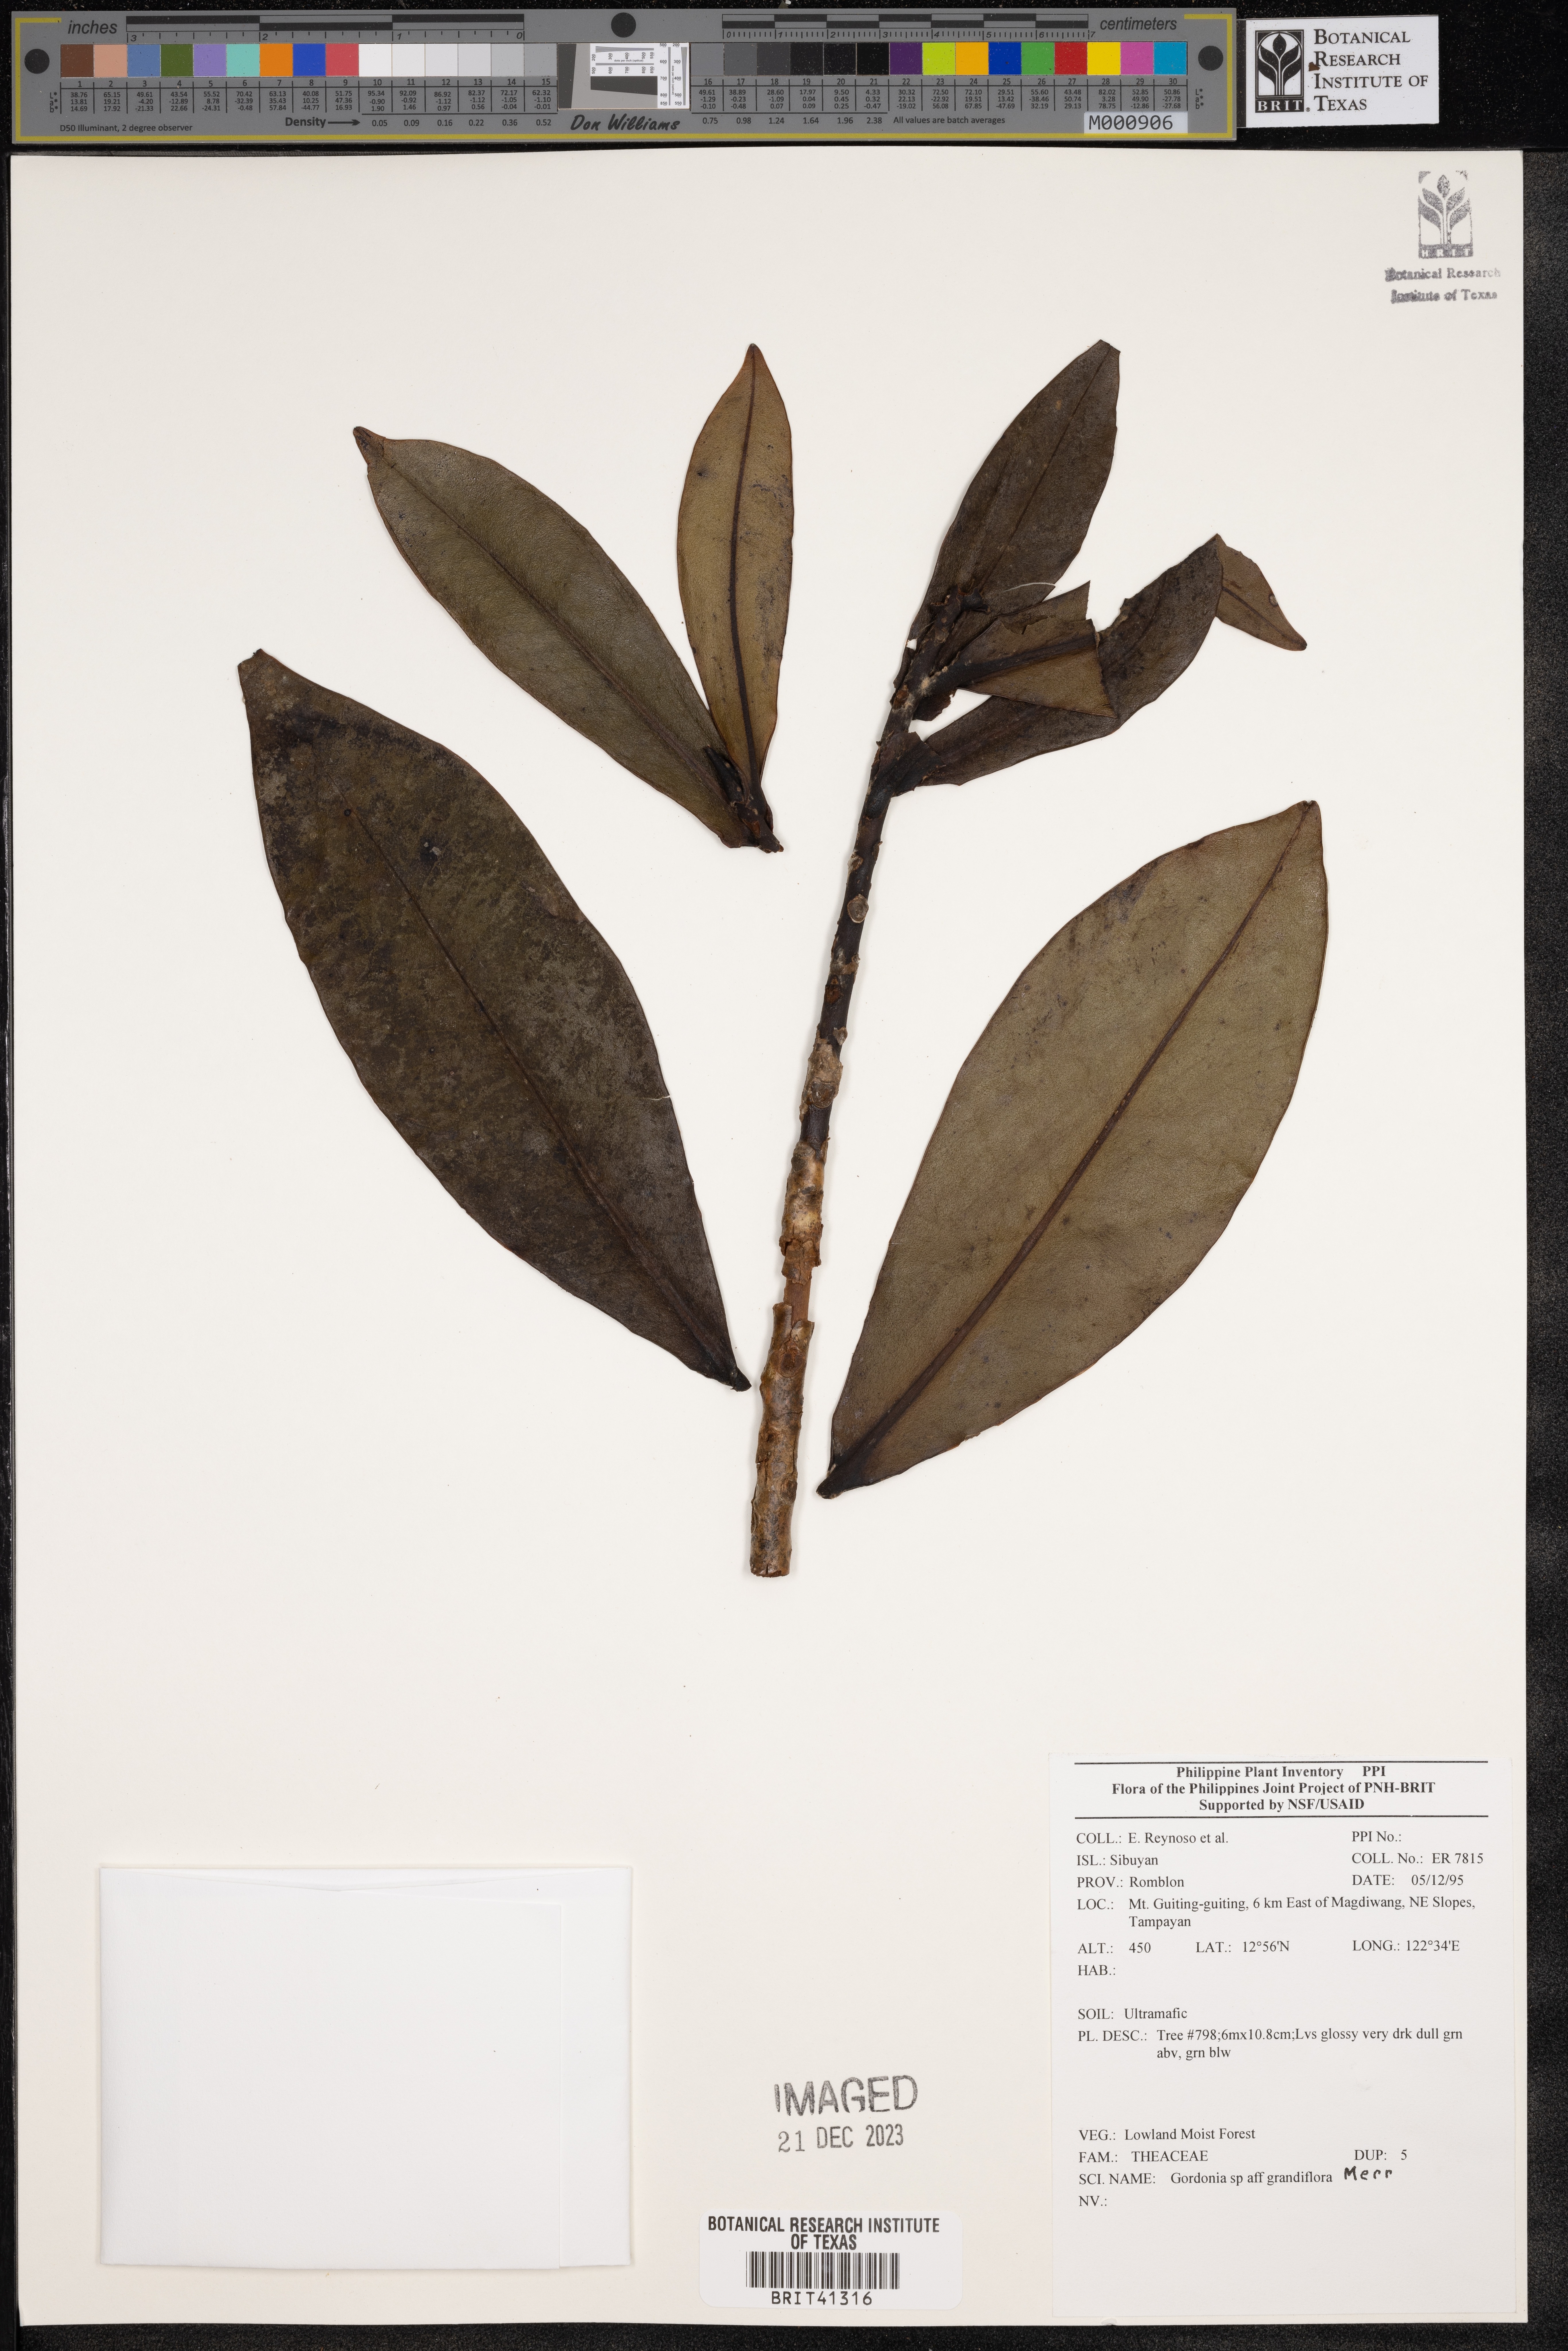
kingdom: Plantae
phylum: Tracheophyta
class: Magnoliopsida
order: Ericales
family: Theaceae
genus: Gordonia
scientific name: Gordonia
